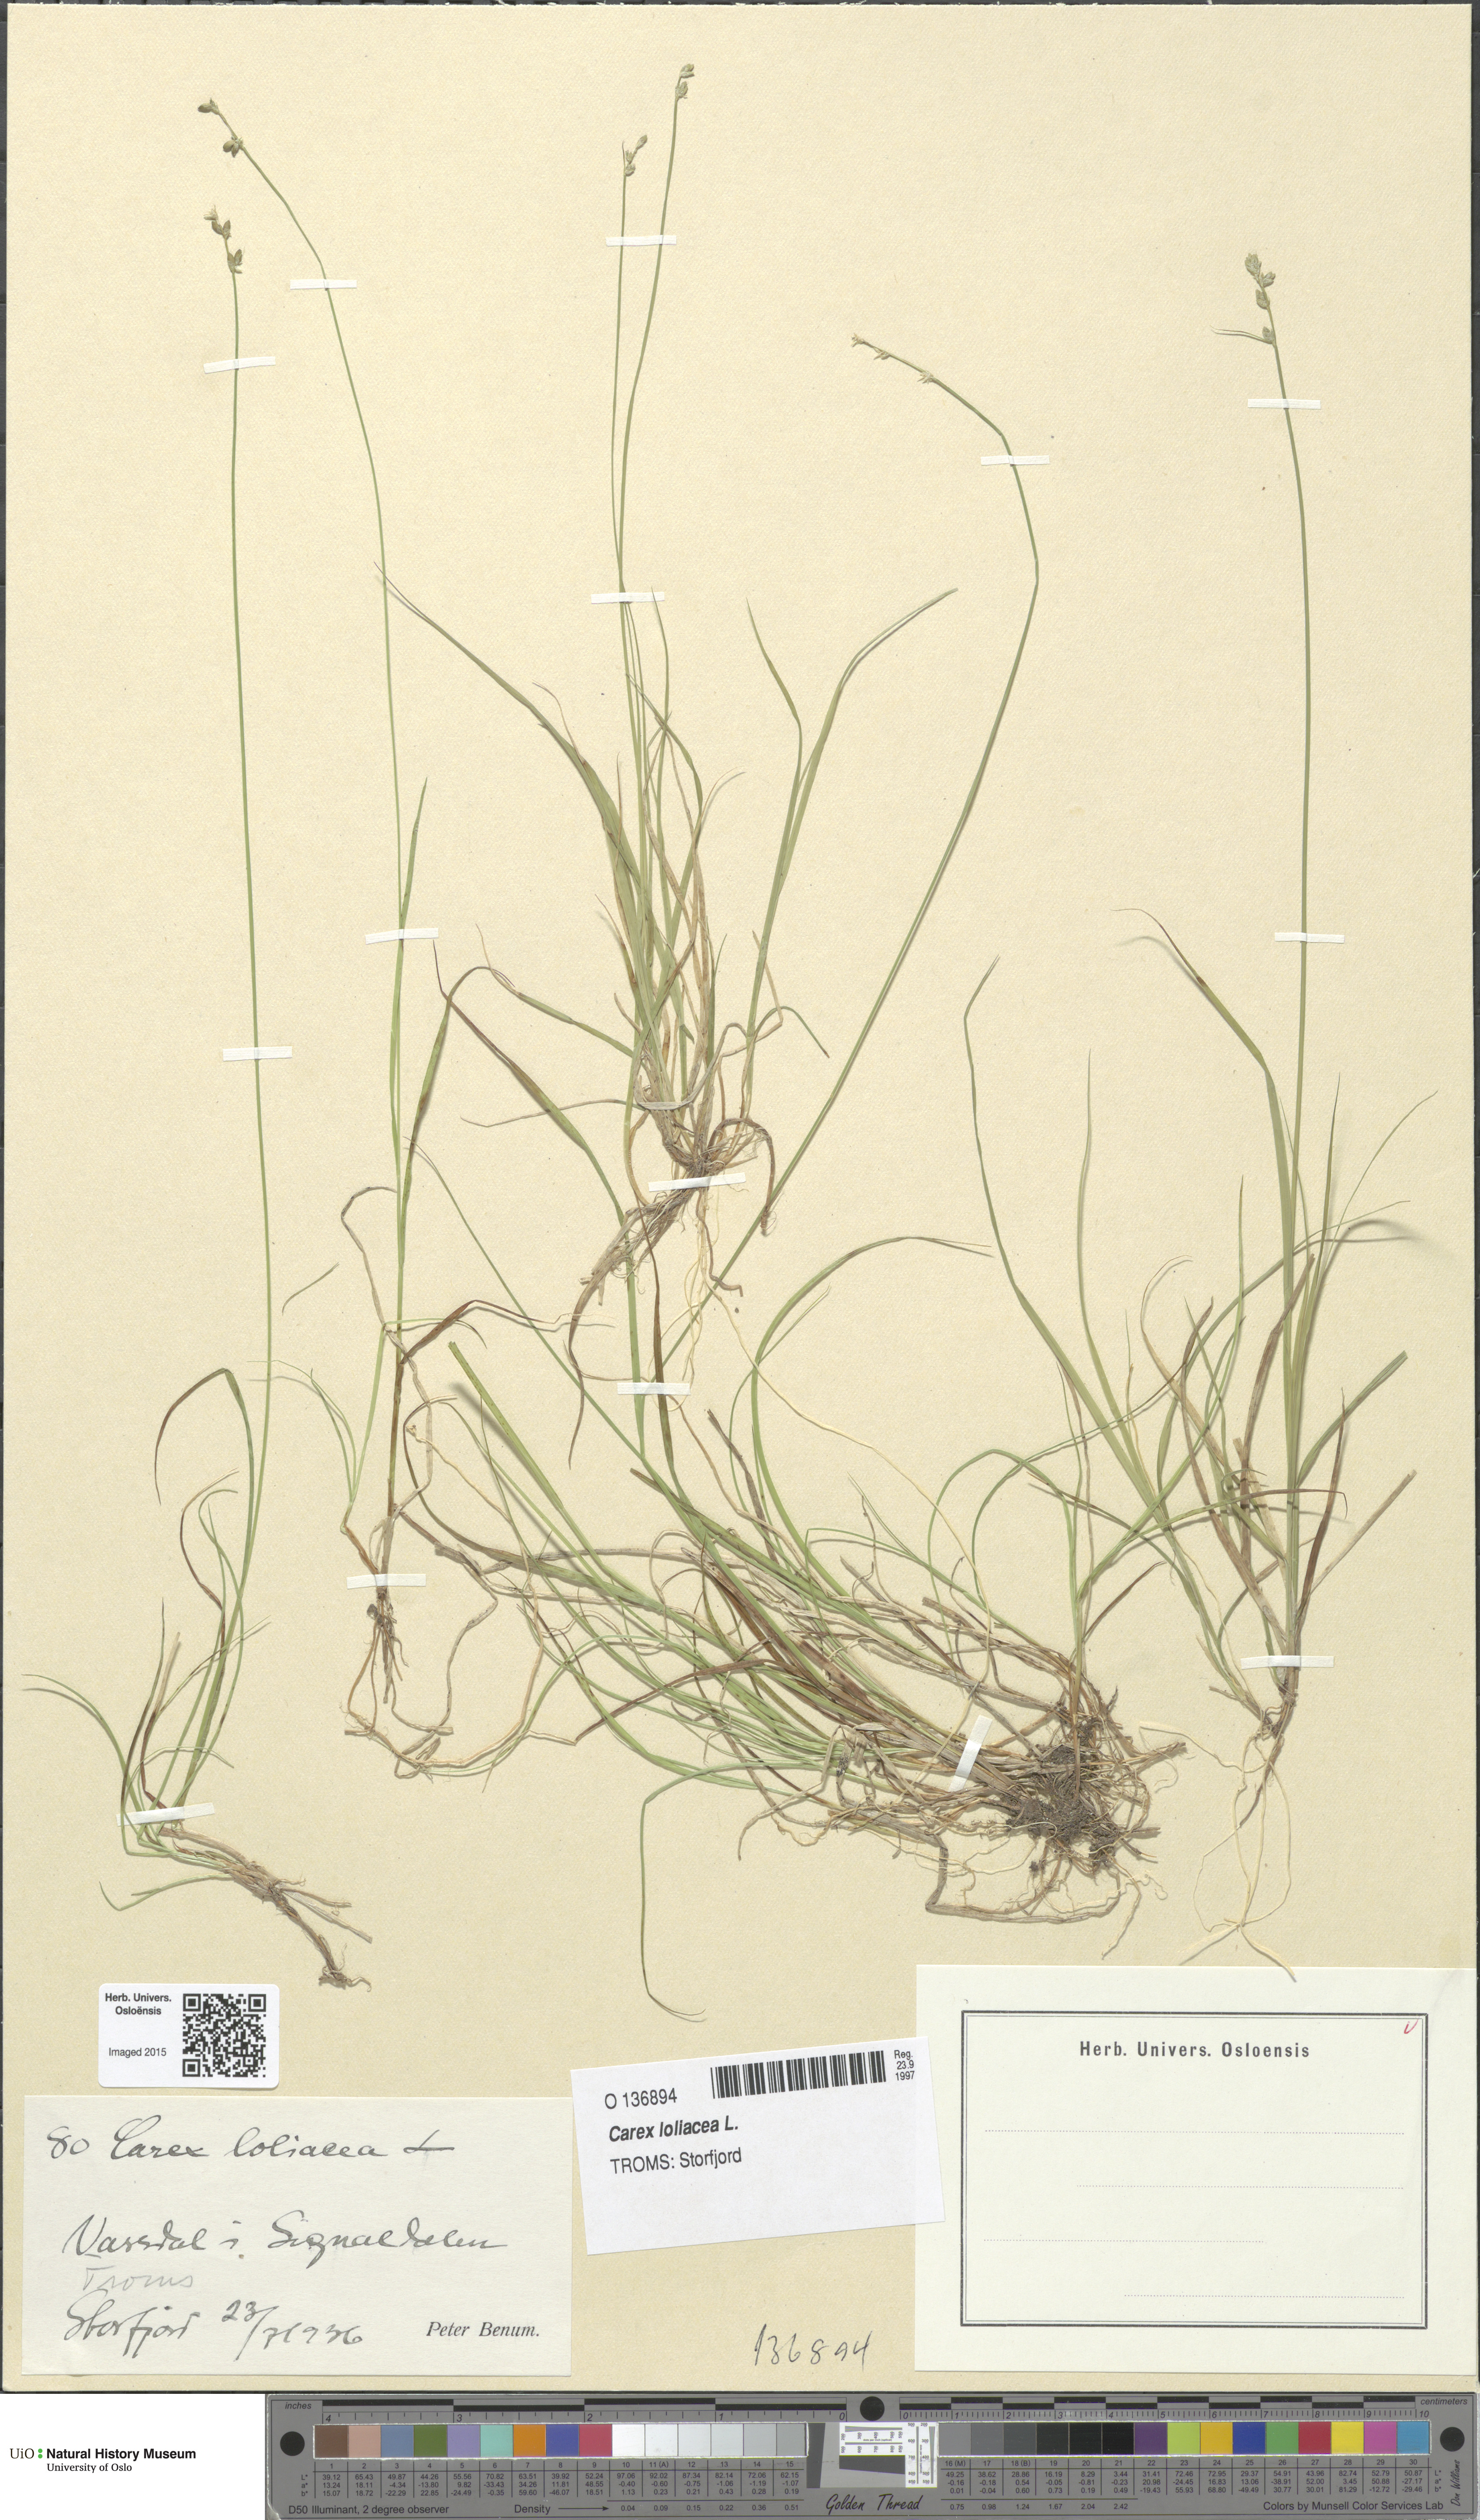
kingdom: Plantae
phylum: Tracheophyta
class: Liliopsida
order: Poales
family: Cyperaceae
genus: Carex
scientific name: Carex loliacea
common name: Ryegrass sedge
